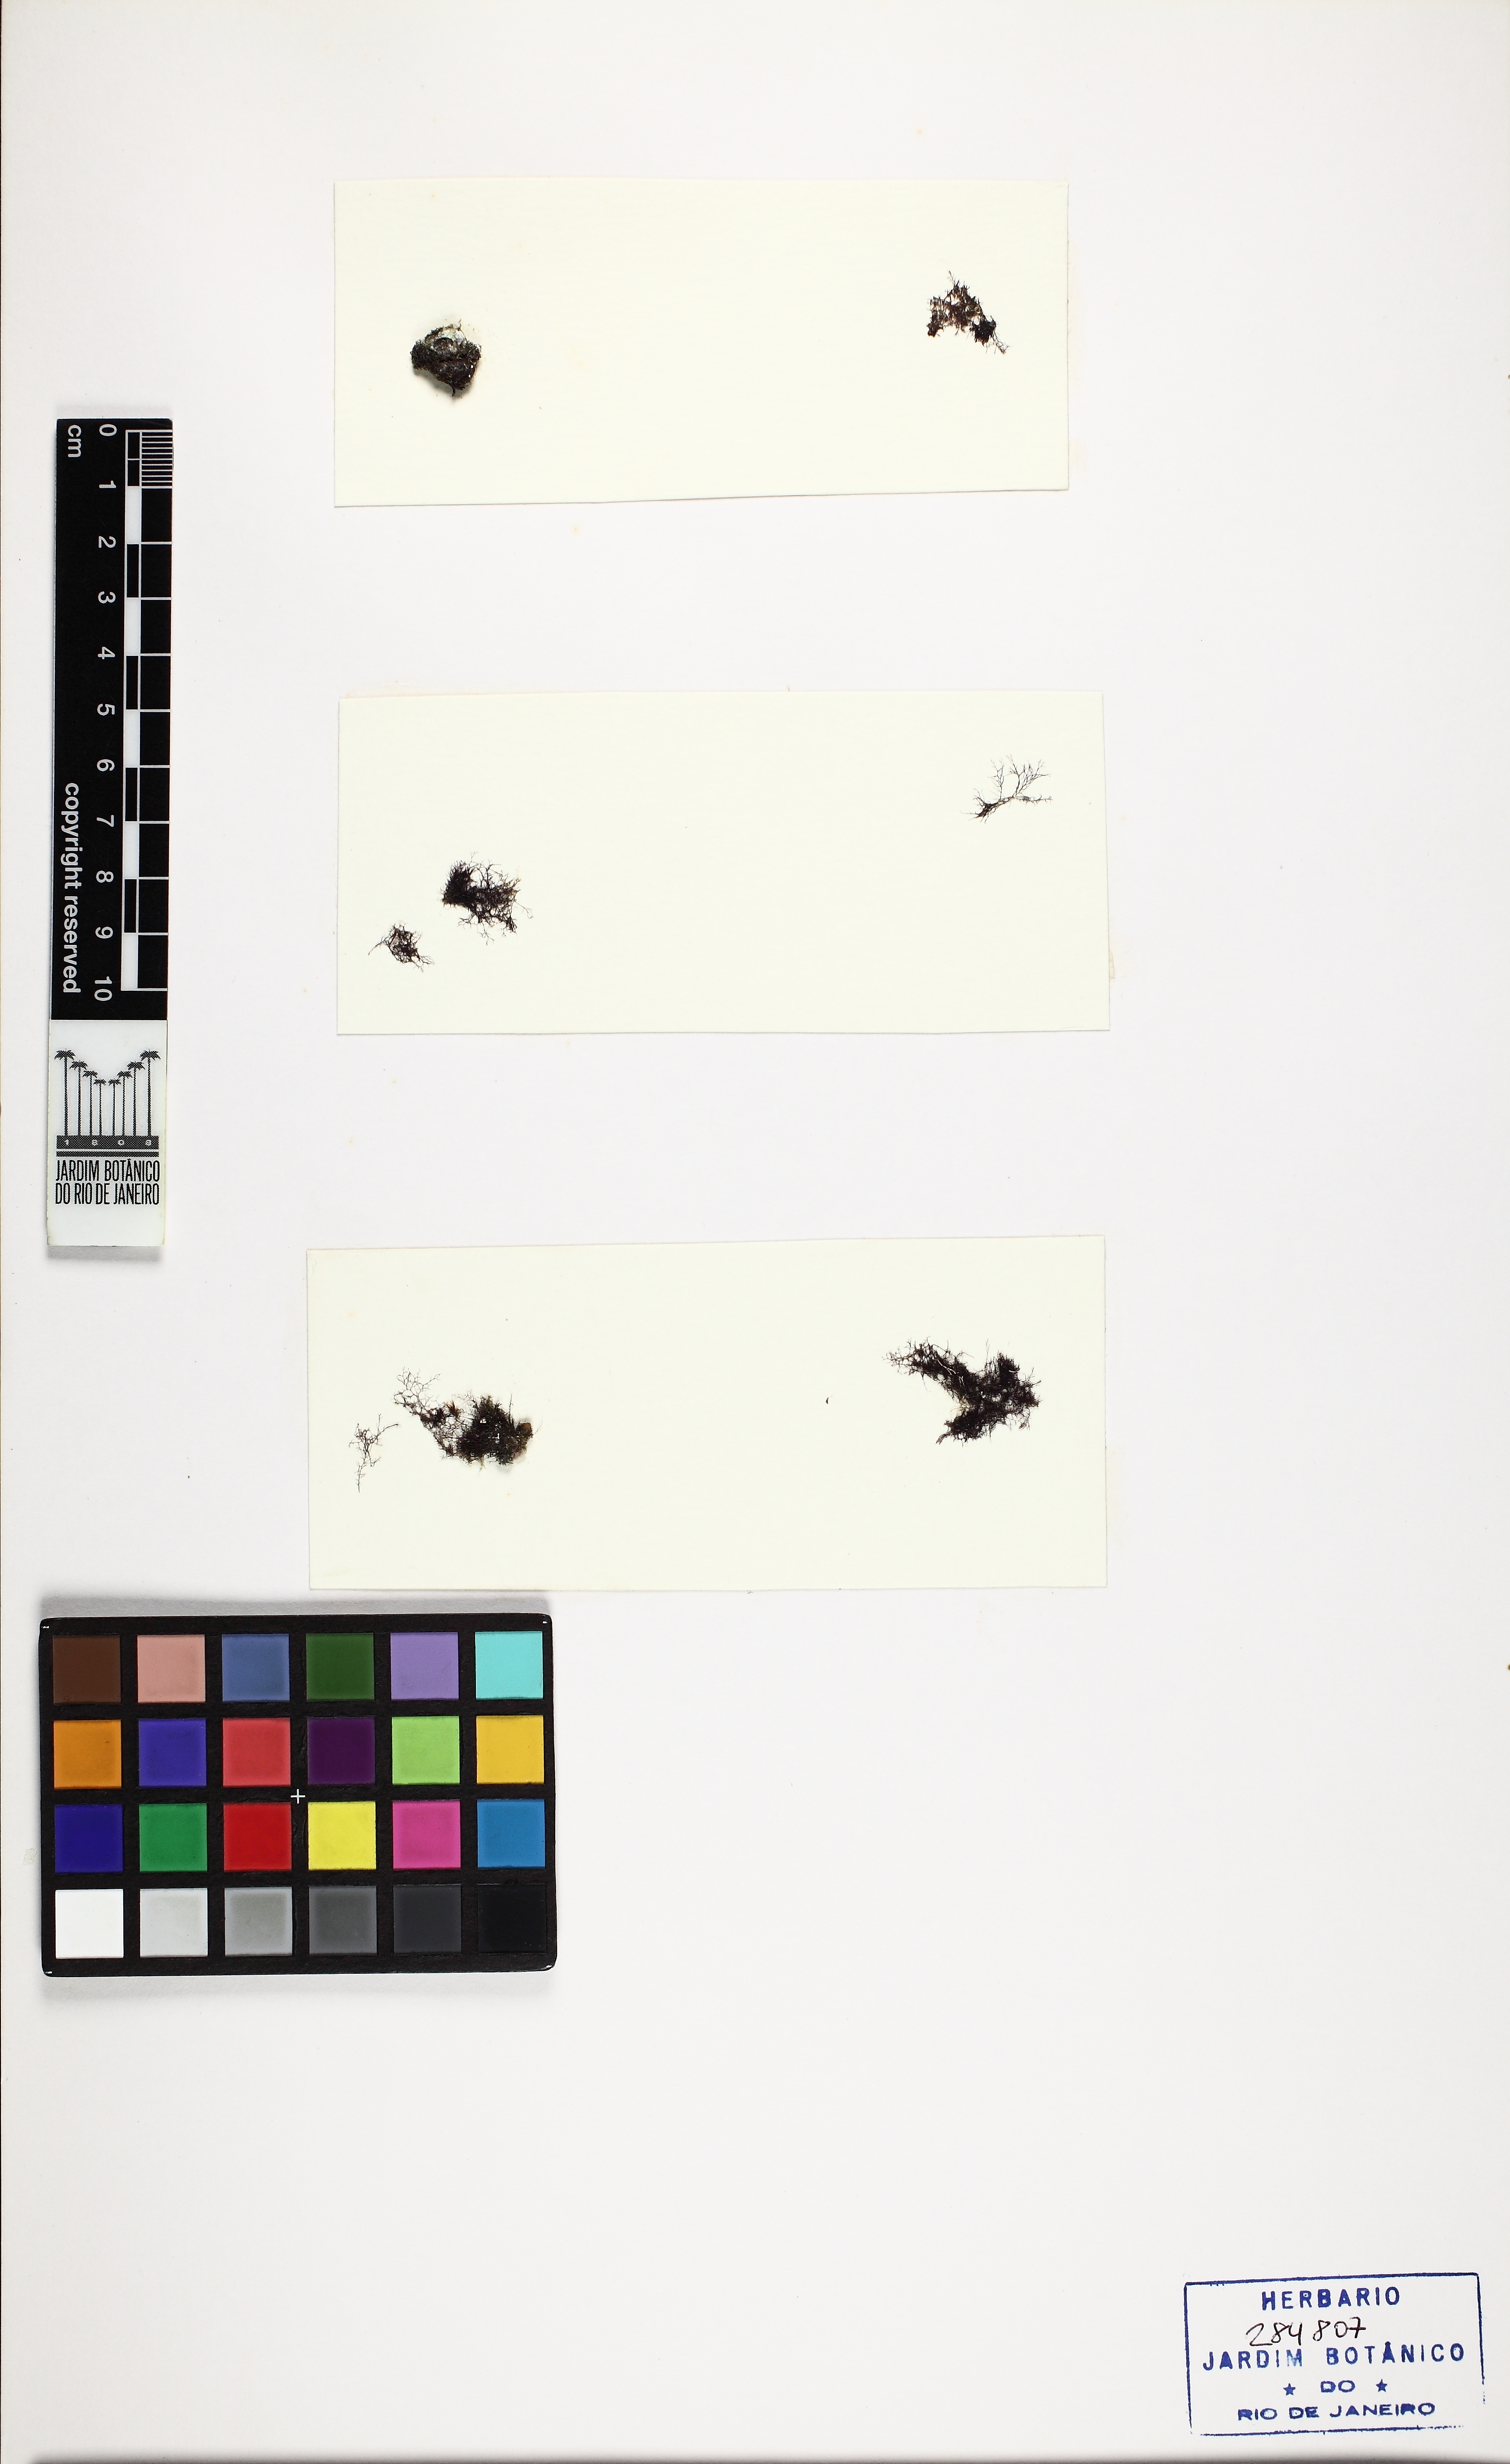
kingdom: Plantae
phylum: Rhodophyta
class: Florideophyceae
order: Ceramiales
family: Rhodomelaceae
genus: Bostrychia
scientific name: Bostrychia radicans
